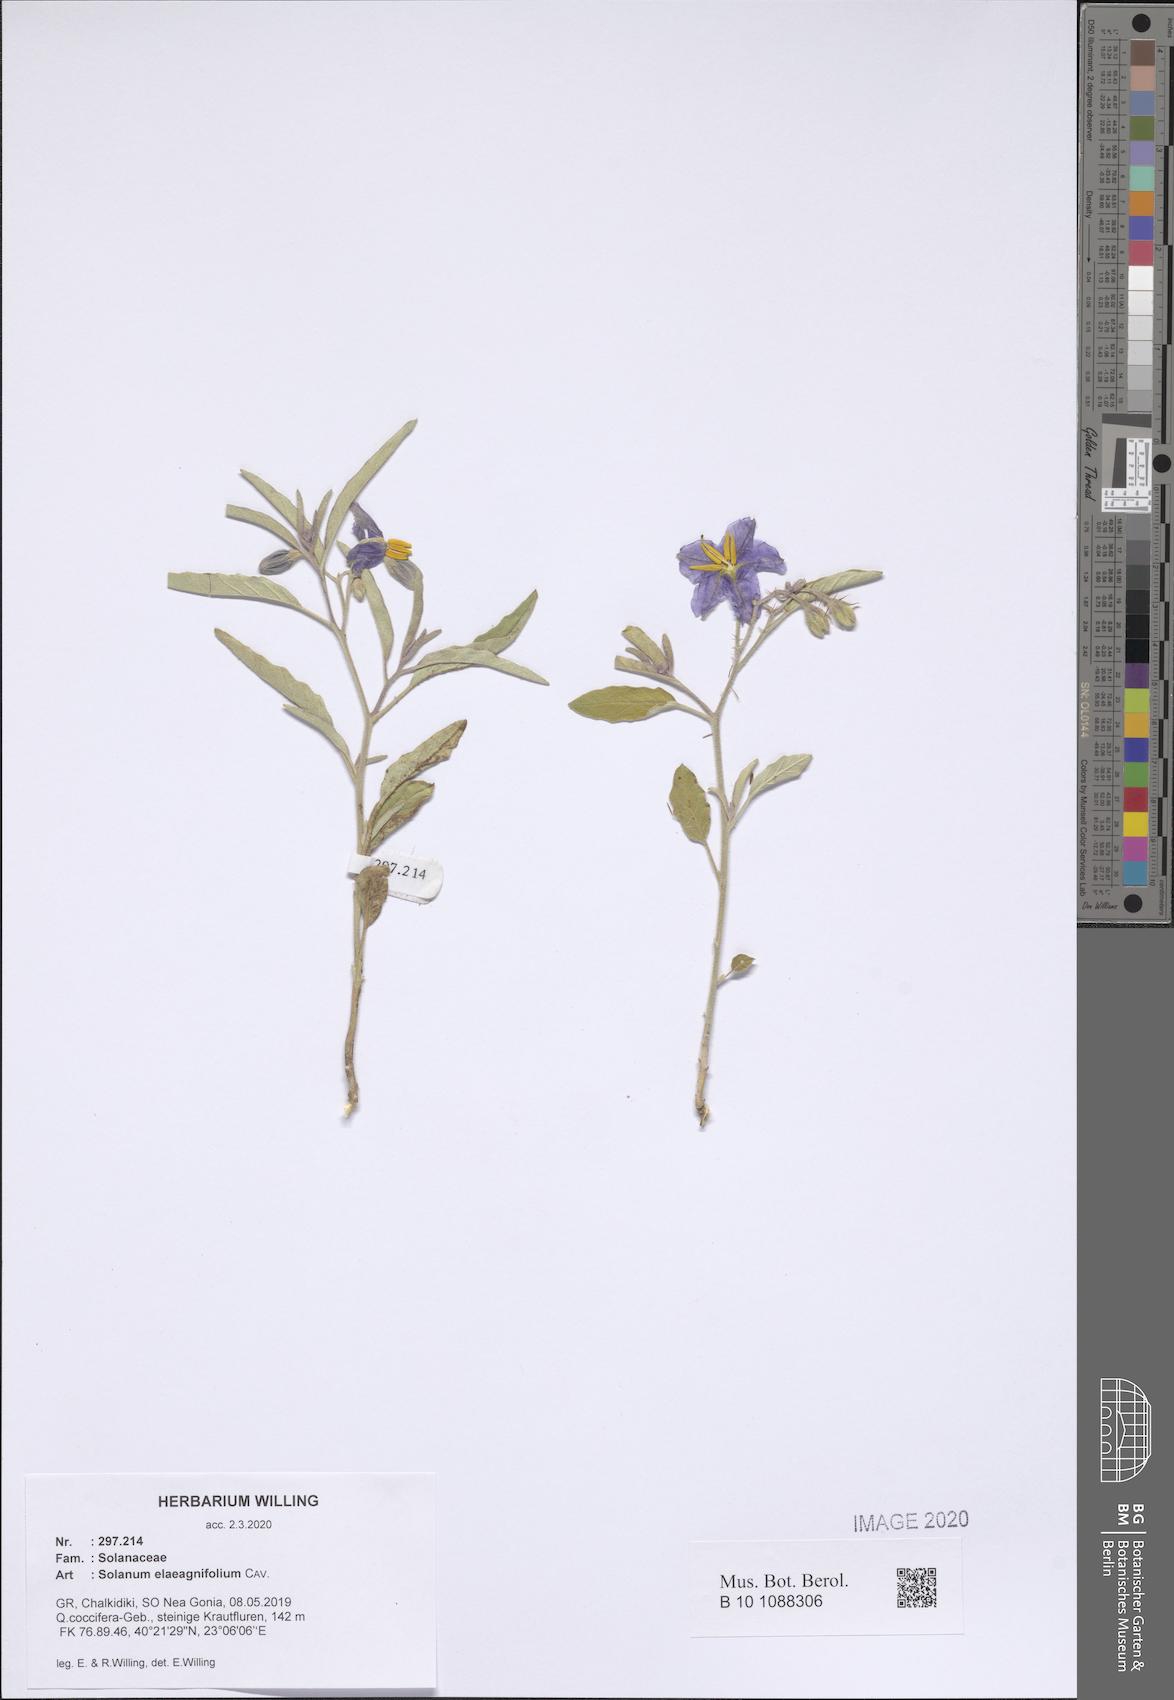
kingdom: Plantae
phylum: Tracheophyta
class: Magnoliopsida
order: Solanales
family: Solanaceae
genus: Solanum
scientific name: Solanum elaeagnifolium
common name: Silverleaf nightshade
